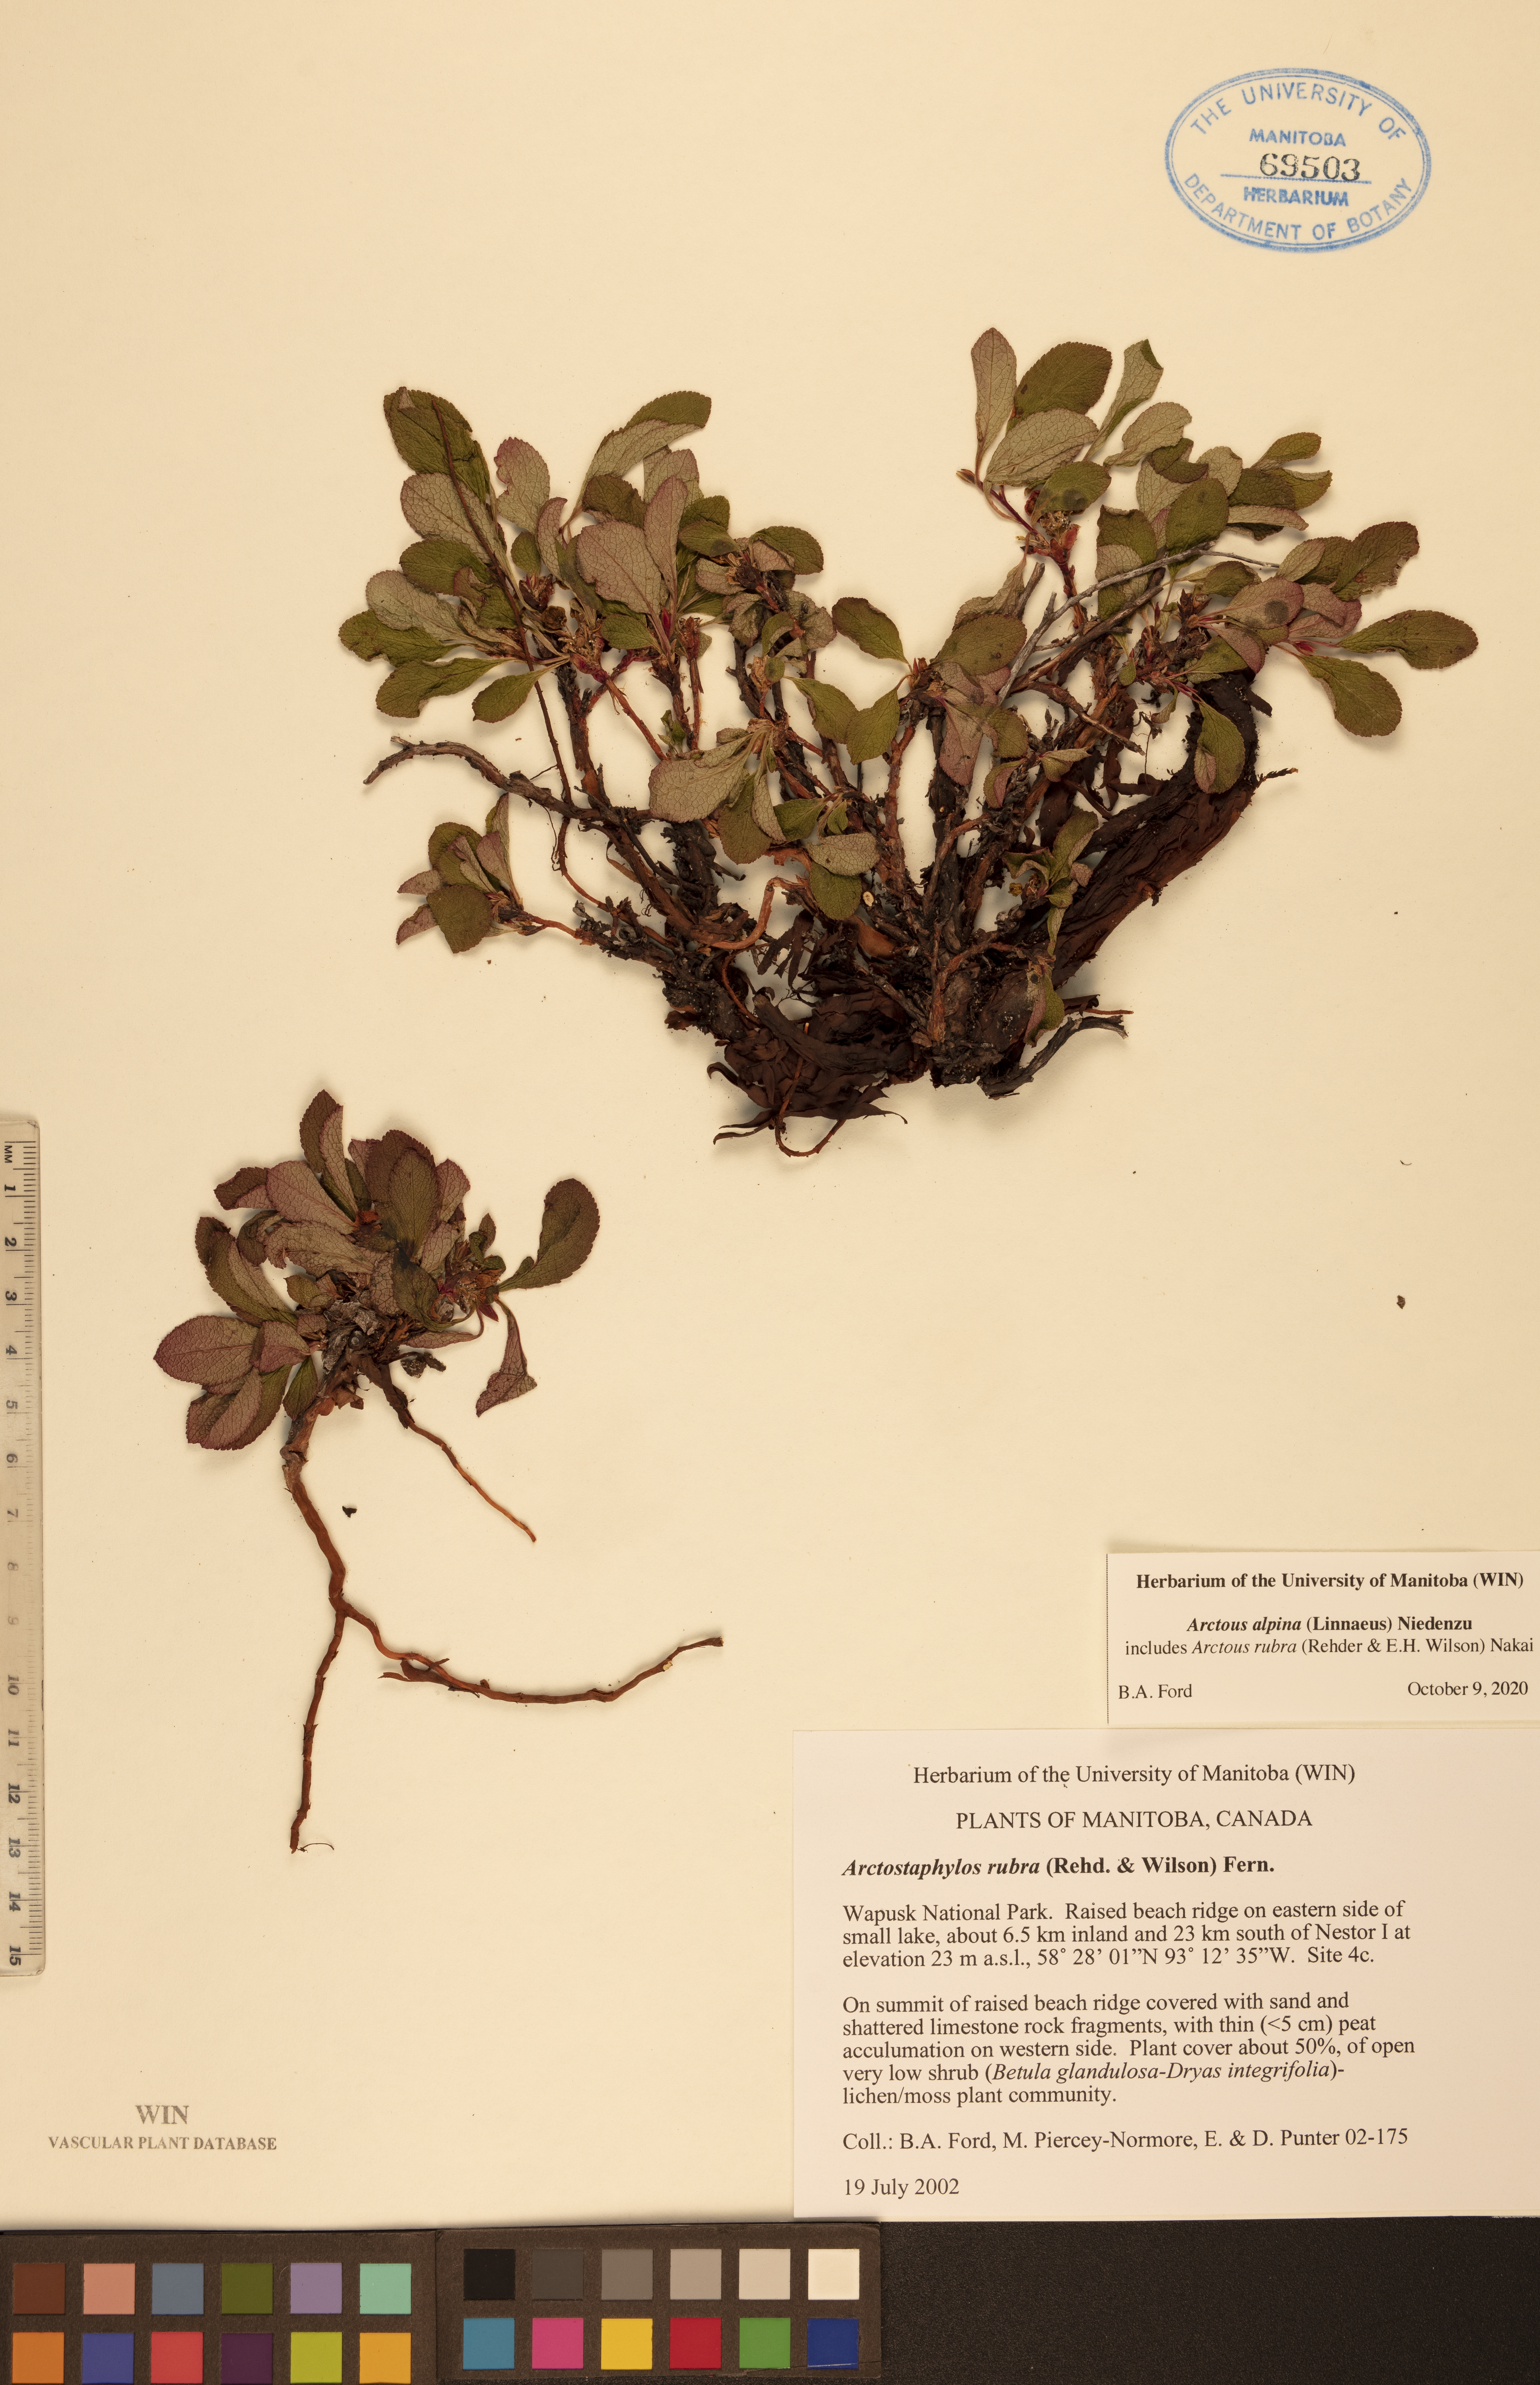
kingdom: Plantae
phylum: Tracheophyta
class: Magnoliopsida
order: Ericales
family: Ericaceae
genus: Arctostaphylos
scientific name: Arctostaphylos alpinus
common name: Alpine bearberry
